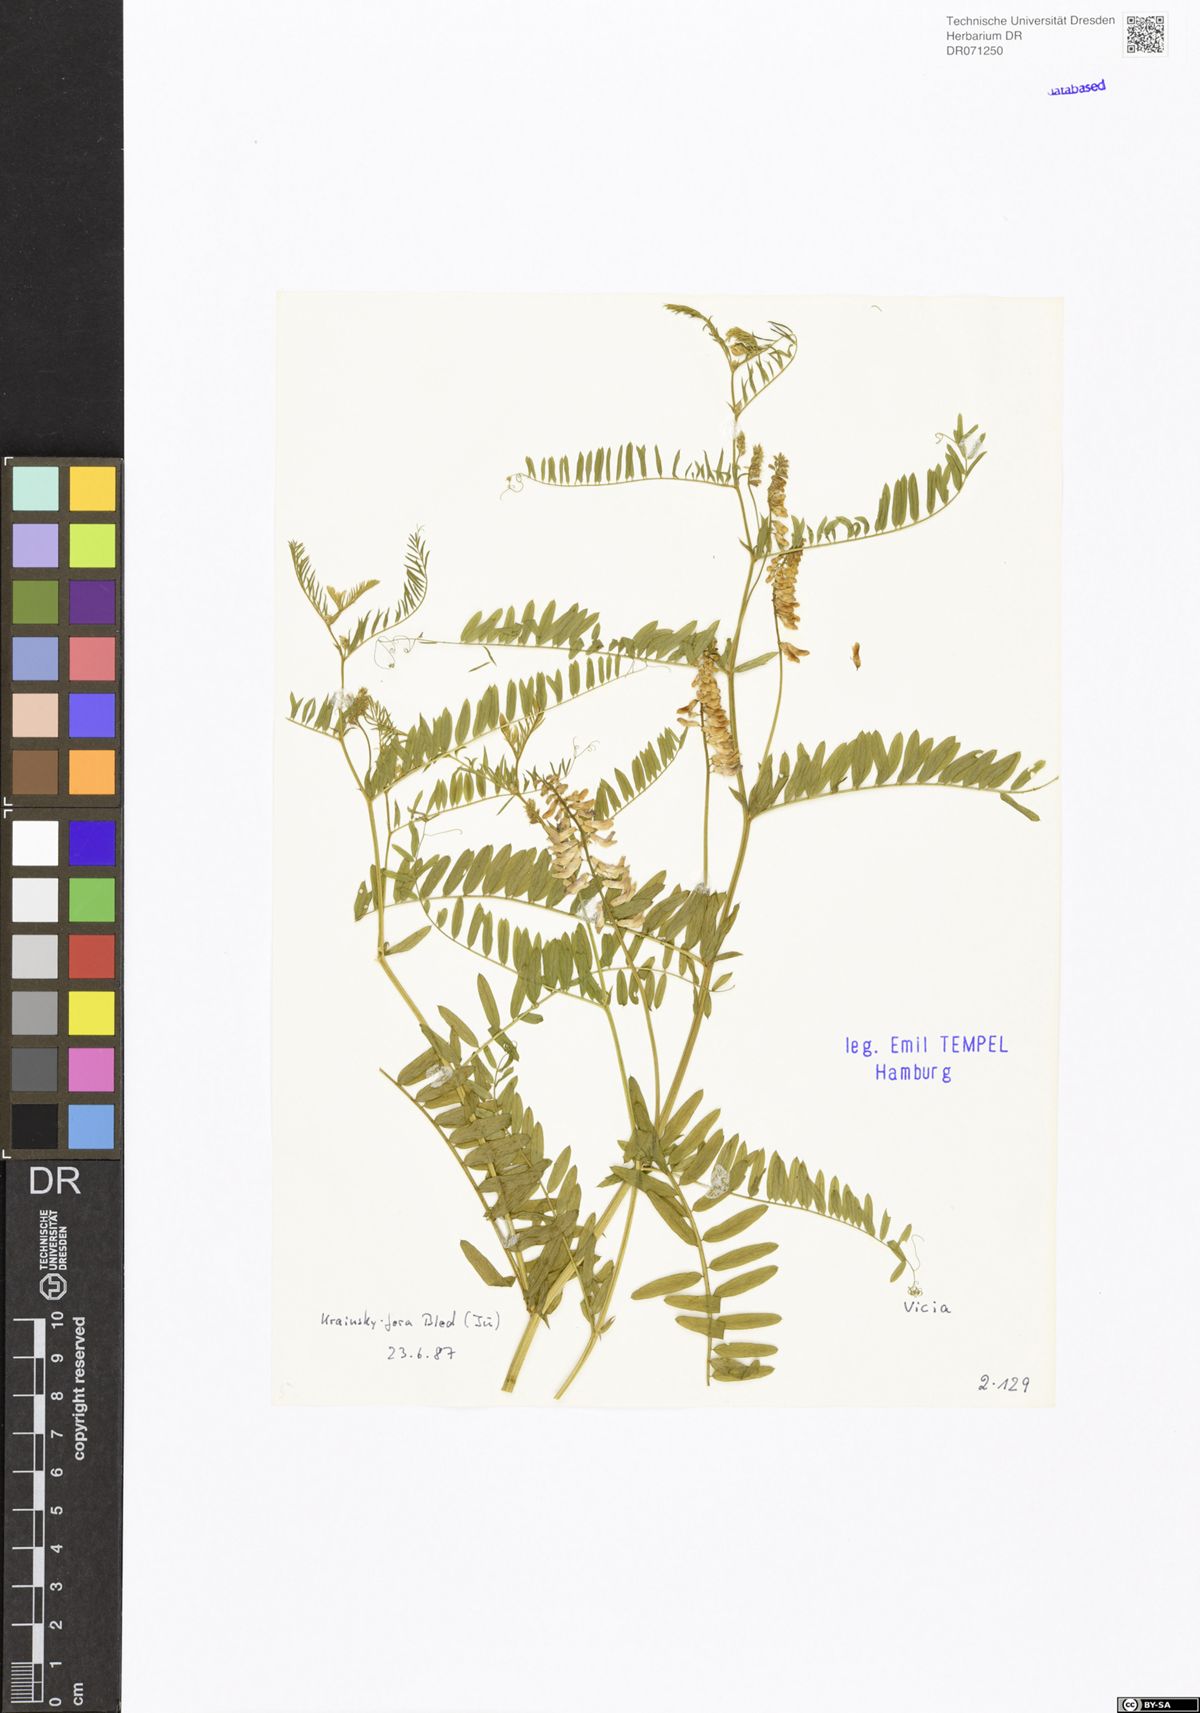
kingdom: Plantae
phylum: Tracheophyta
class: Magnoliopsida
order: Fabales
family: Fabaceae
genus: Vicia
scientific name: Vicia
